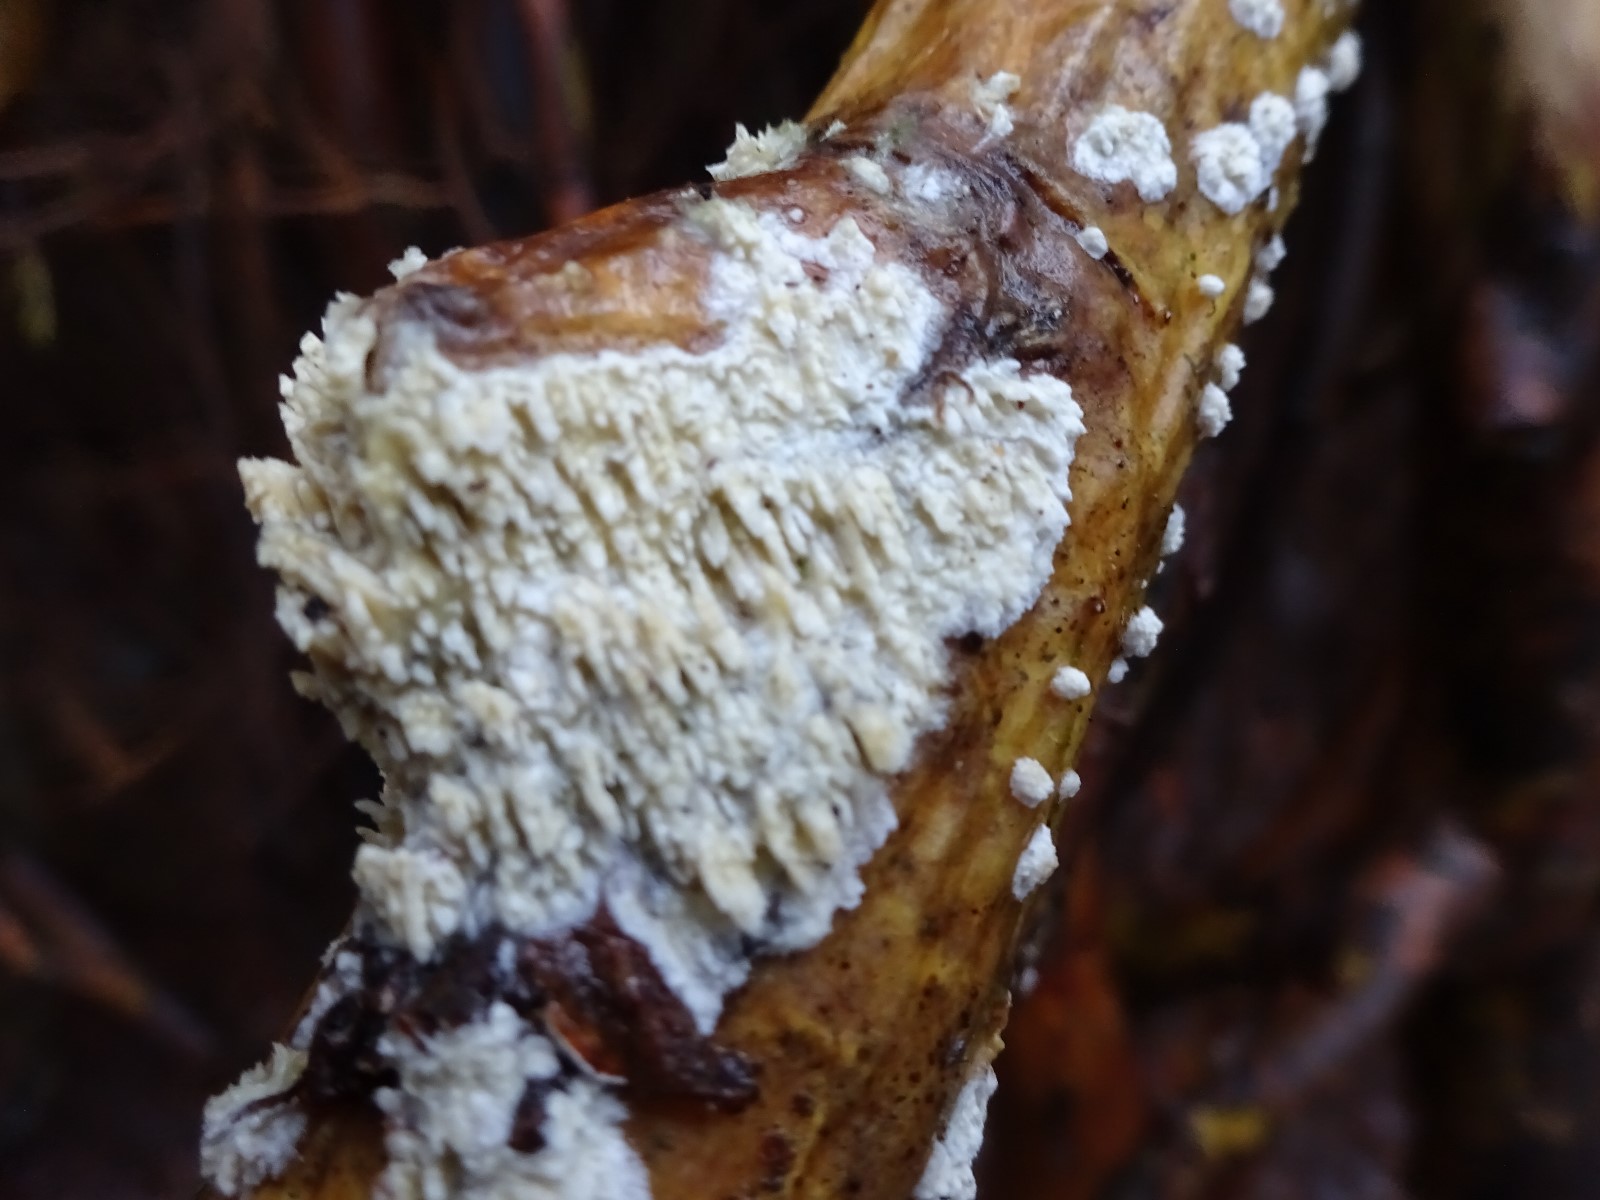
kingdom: Fungi
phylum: Basidiomycota
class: Agaricomycetes
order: Hymenochaetales
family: Schizoporaceae
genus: Xylodon
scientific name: Xylodon radula
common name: grovtandet kalkskind
